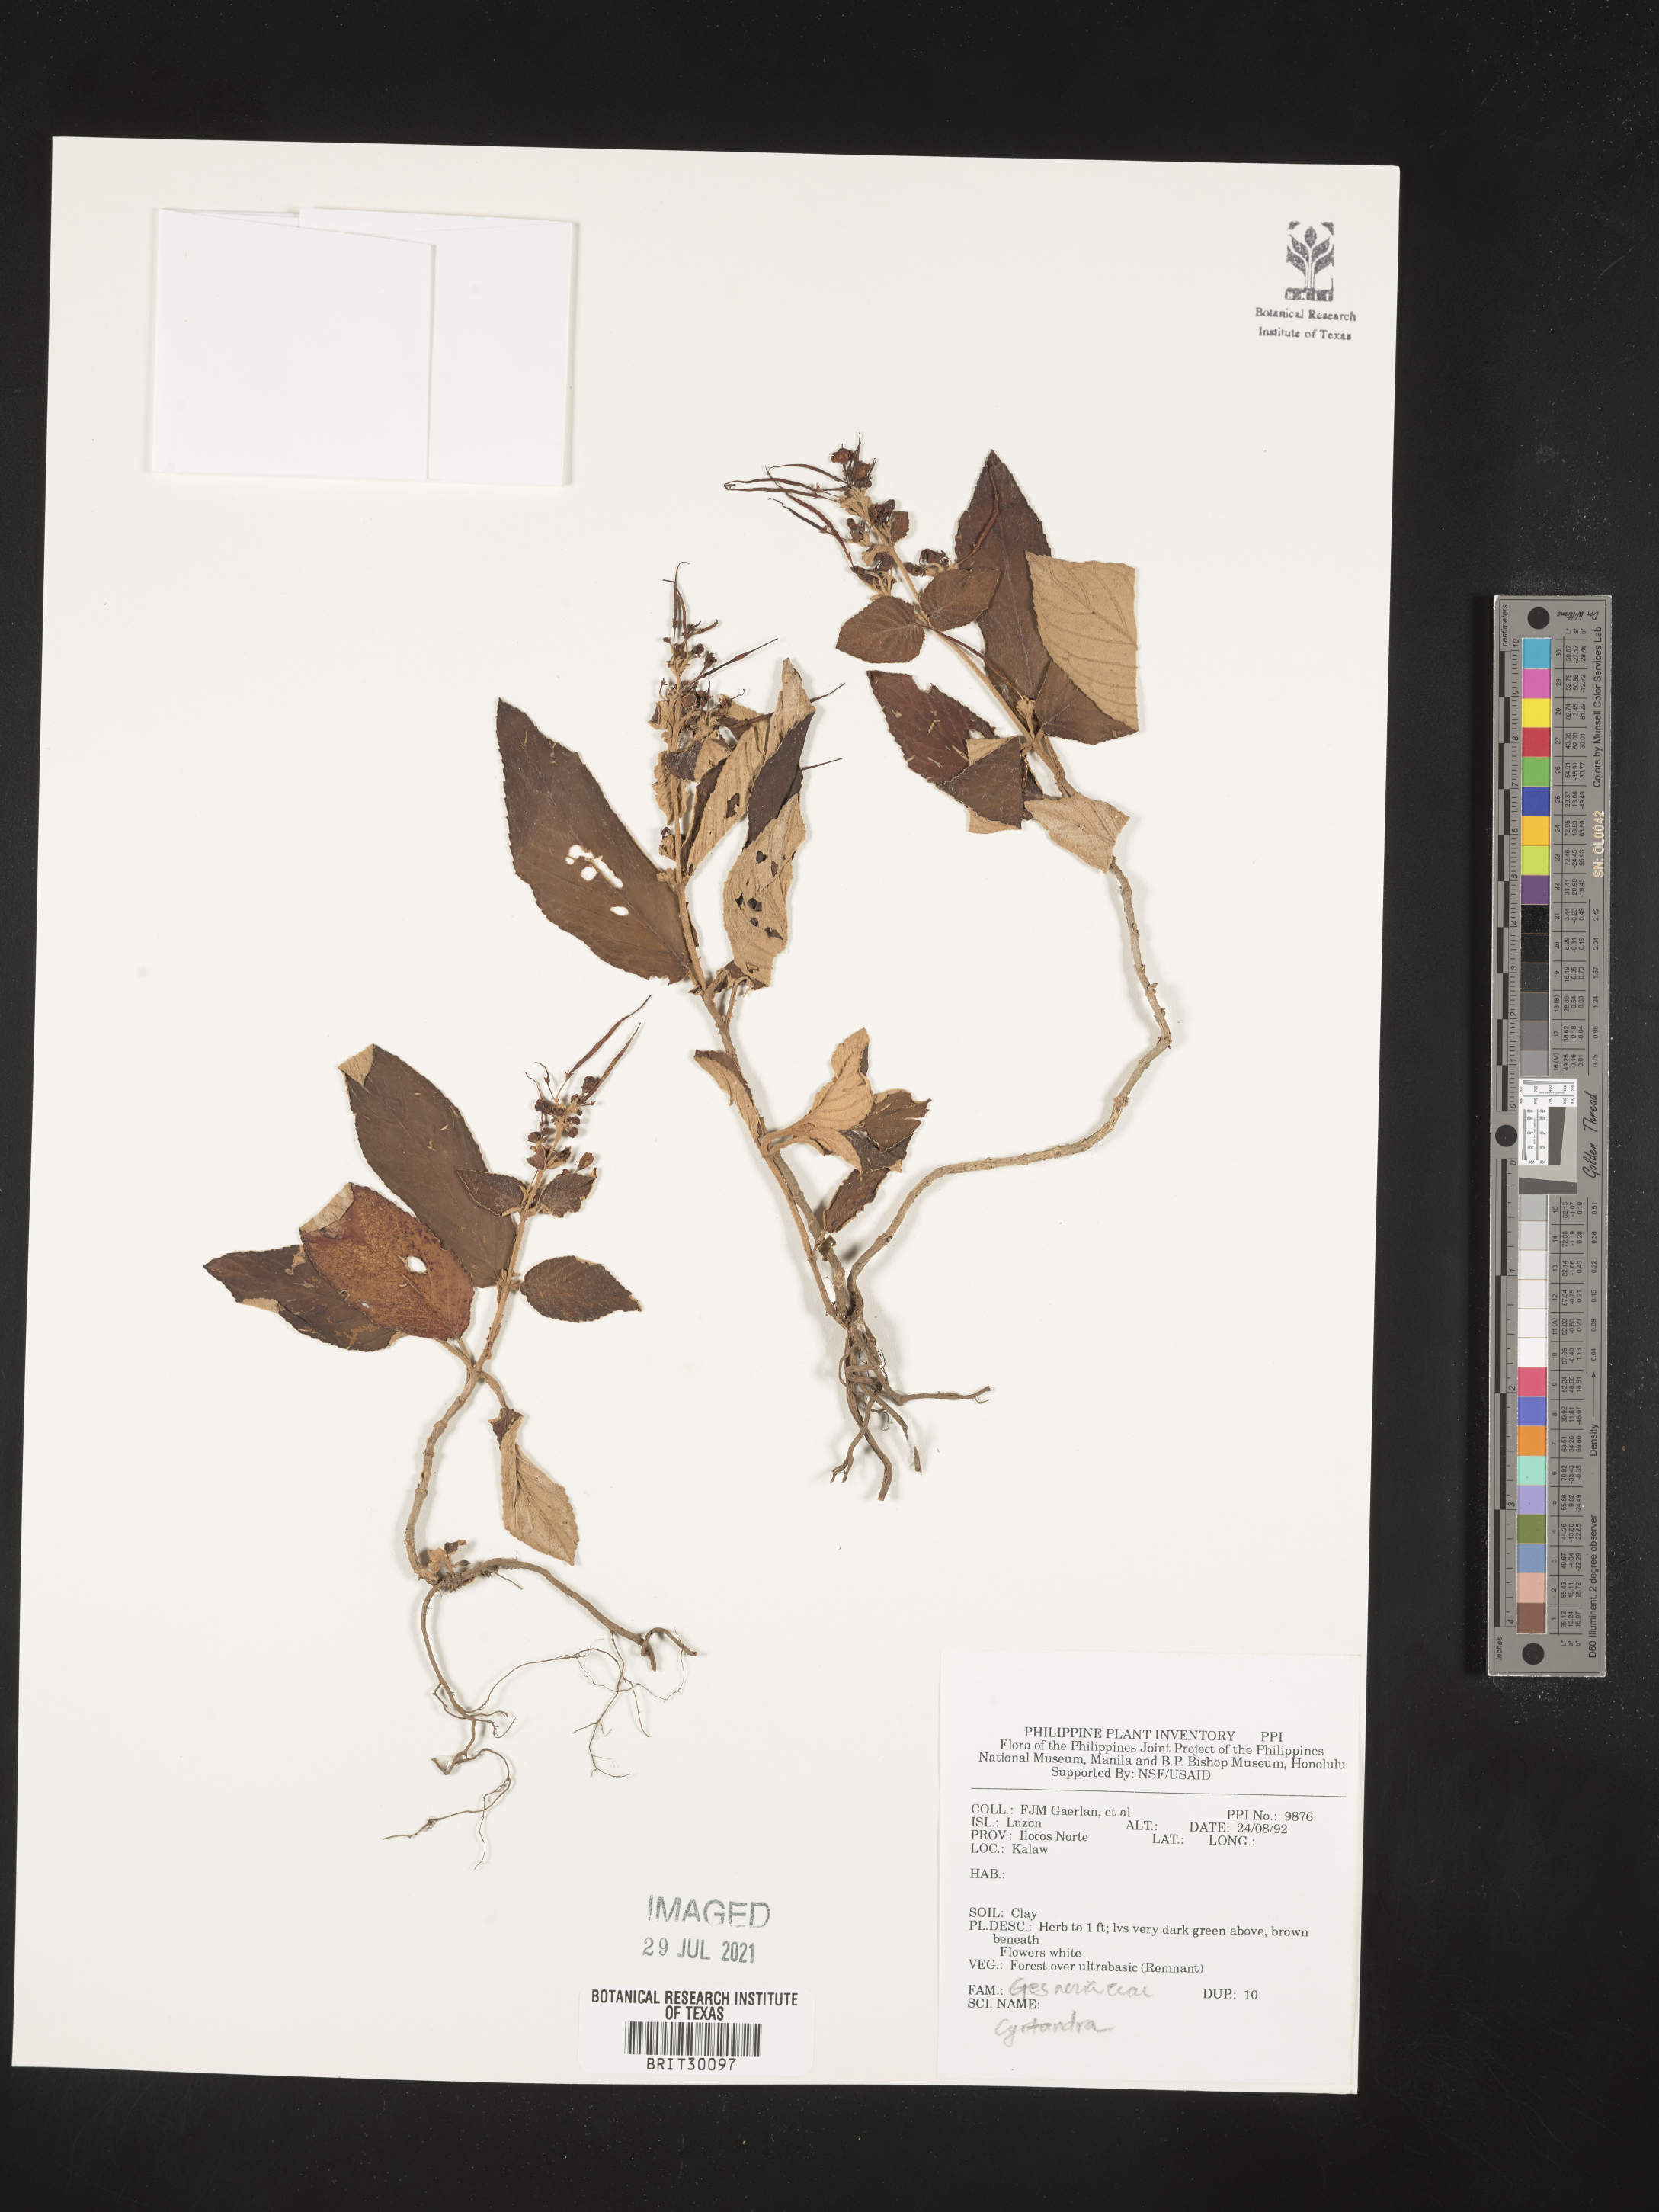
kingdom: Plantae
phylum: Tracheophyta
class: Magnoliopsida
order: Lamiales
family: Gesneriaceae
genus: Cyrtandra
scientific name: Cyrtandra
